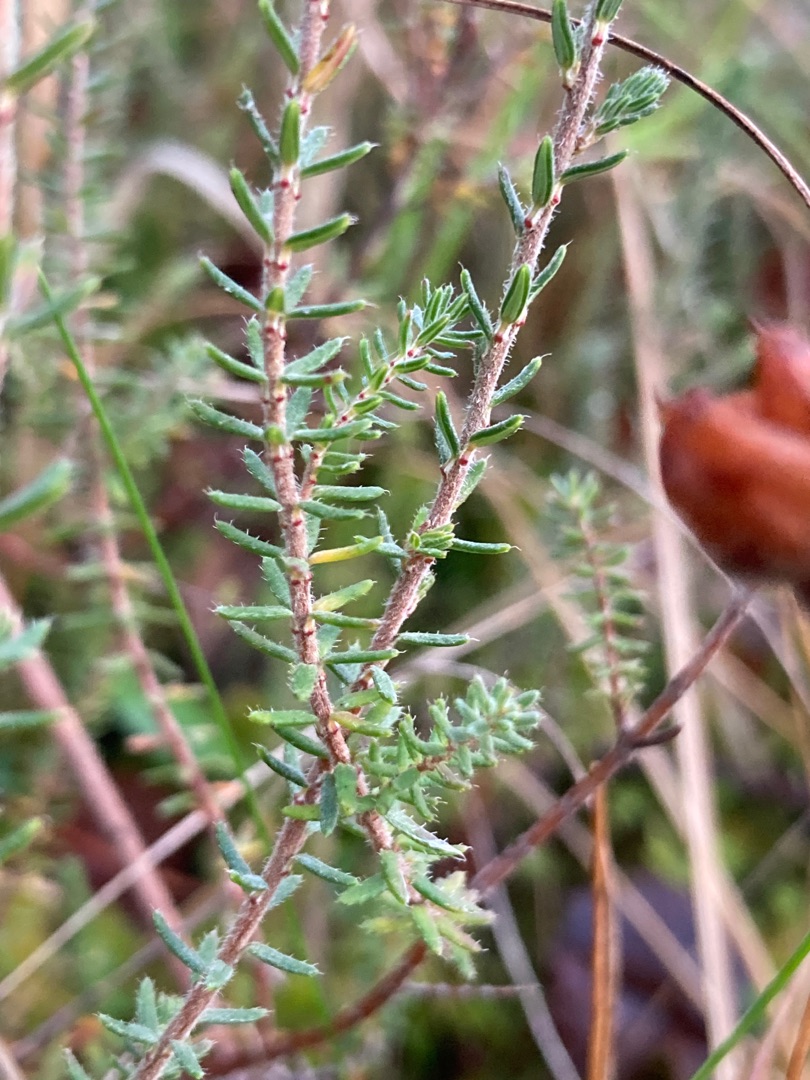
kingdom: Plantae
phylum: Tracheophyta
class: Magnoliopsida
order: Ericales
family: Ericaceae
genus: Erica
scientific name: Erica tetralix
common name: Klokkelyng
